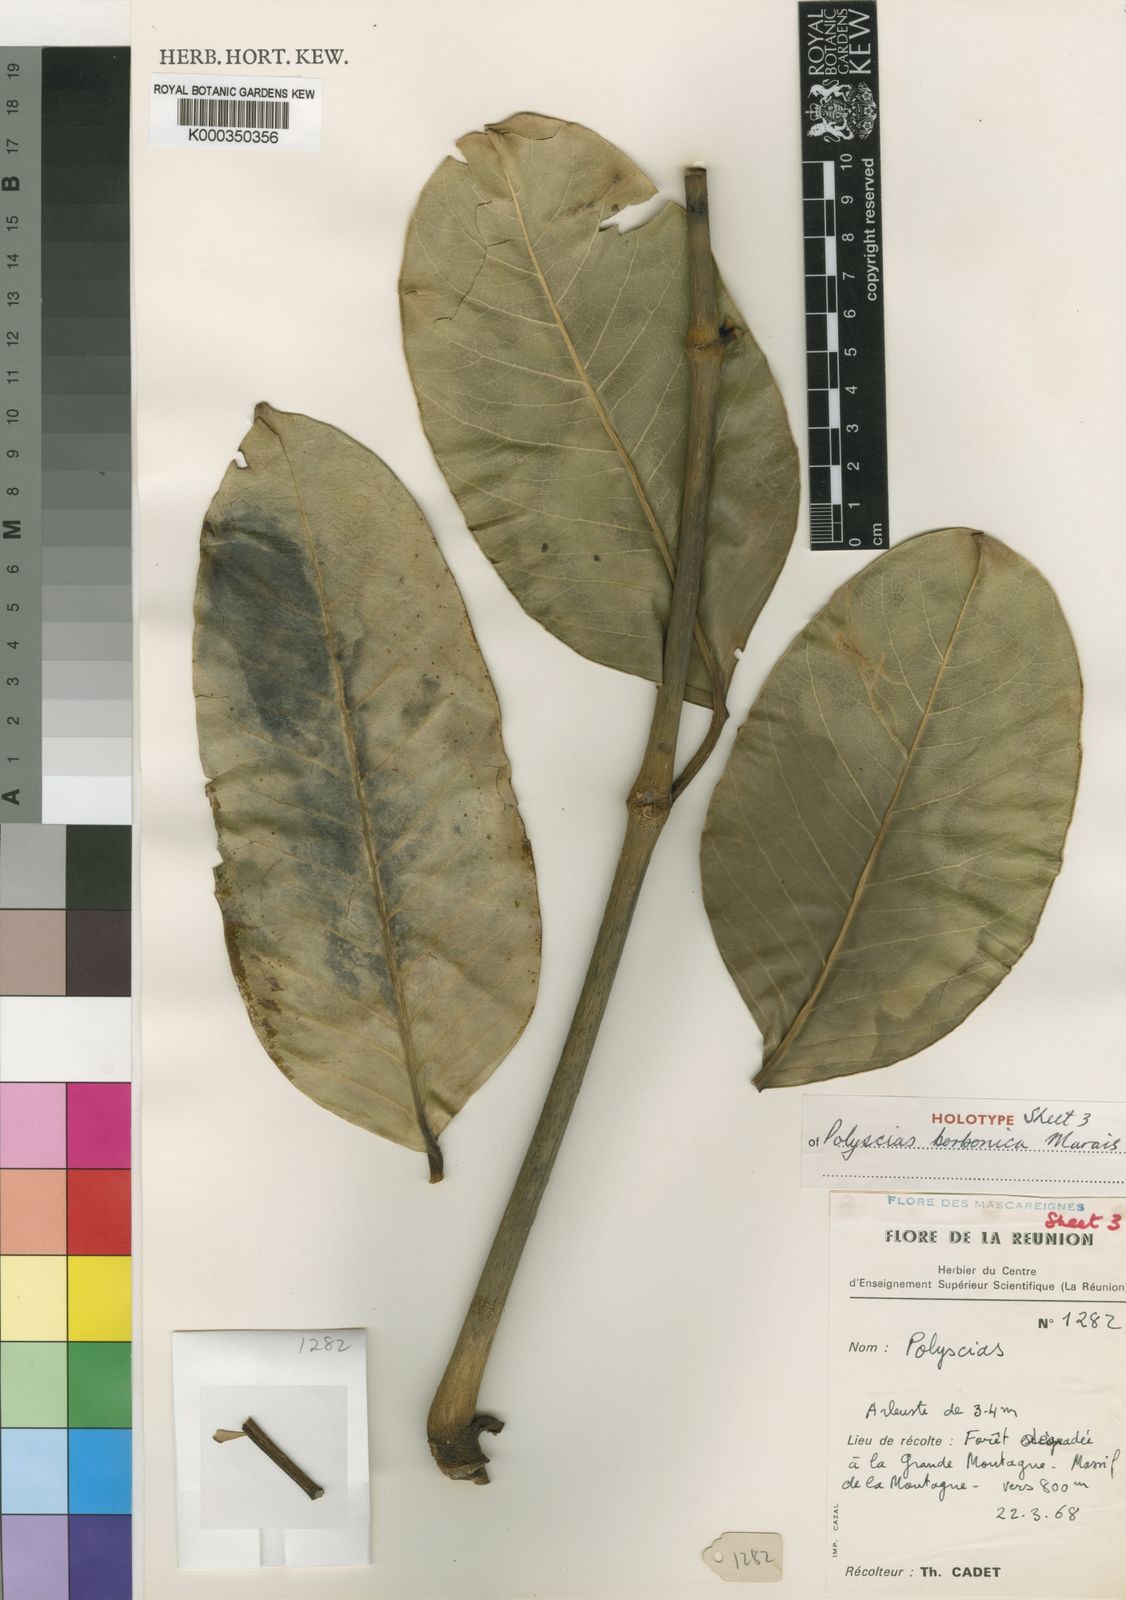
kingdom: Plantae
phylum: Tracheophyta
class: Magnoliopsida
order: Apiales
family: Araliaceae
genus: Polyscias
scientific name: Polyscias borbonica
